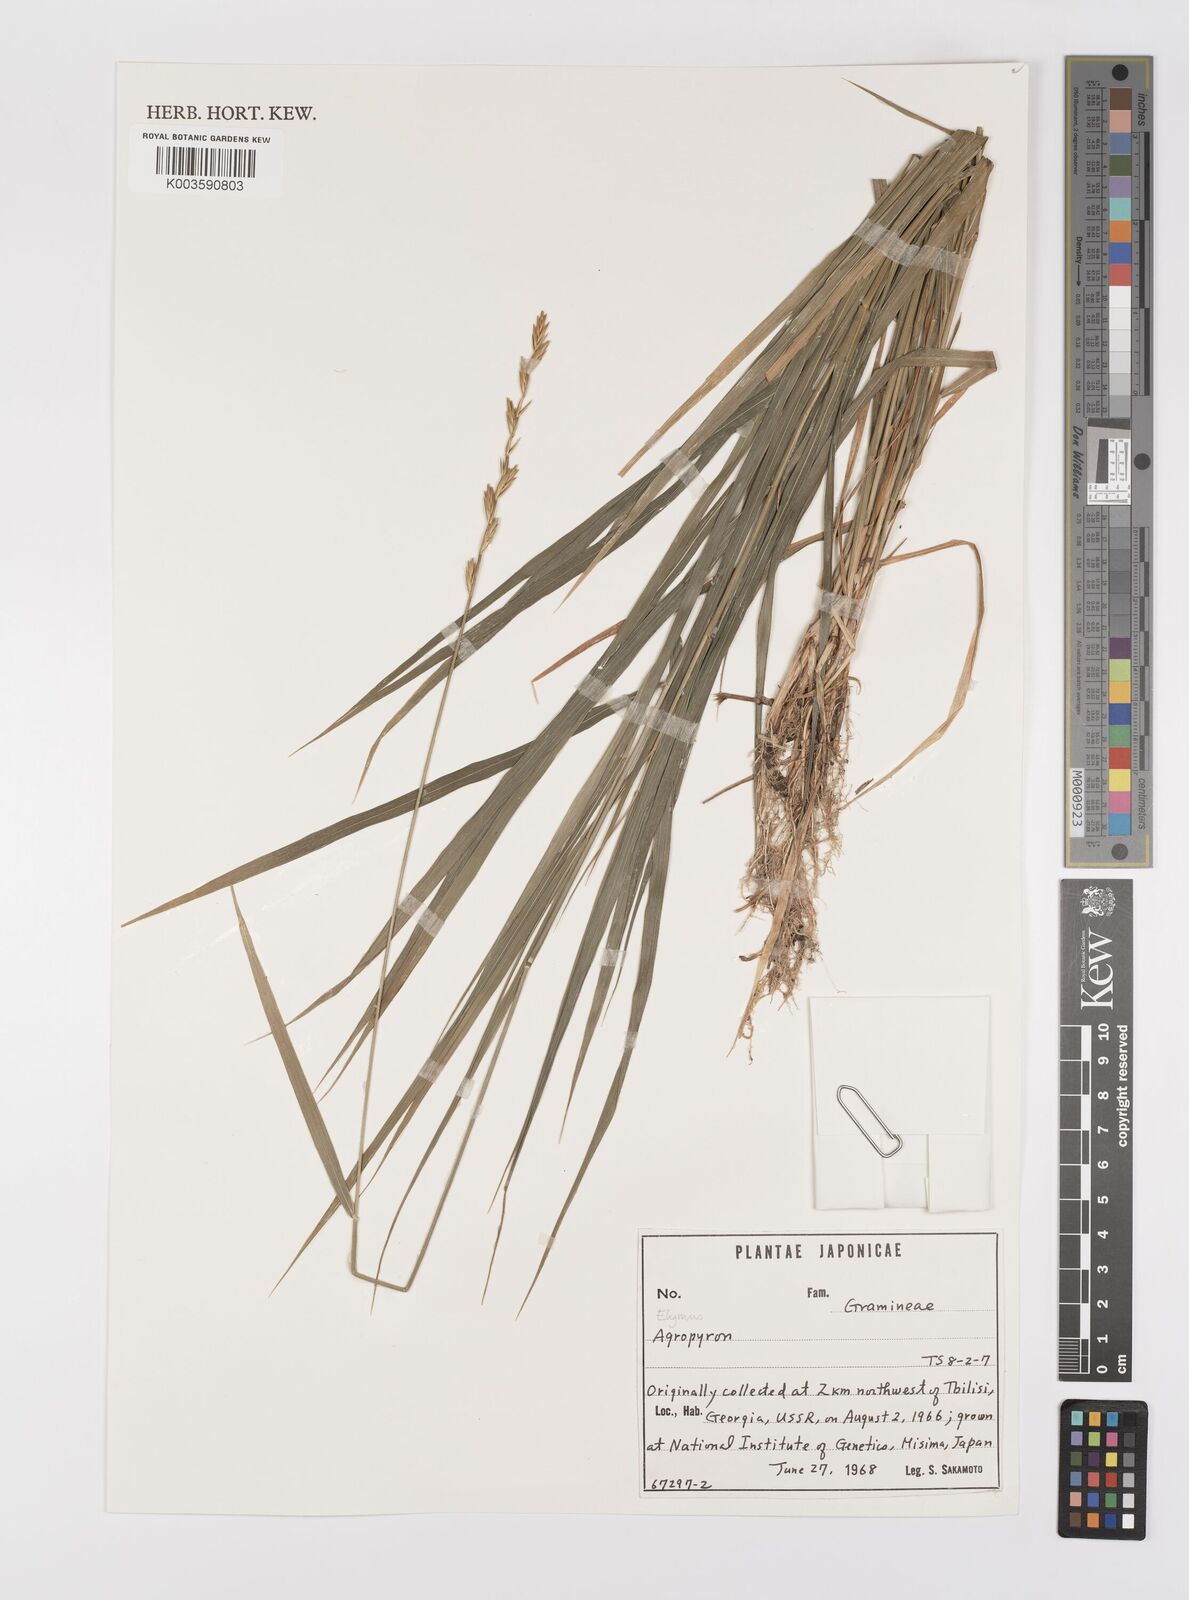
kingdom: Plantae
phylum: Tracheophyta
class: Liliopsida
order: Poales
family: Poaceae
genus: Elymus
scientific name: Elymus
